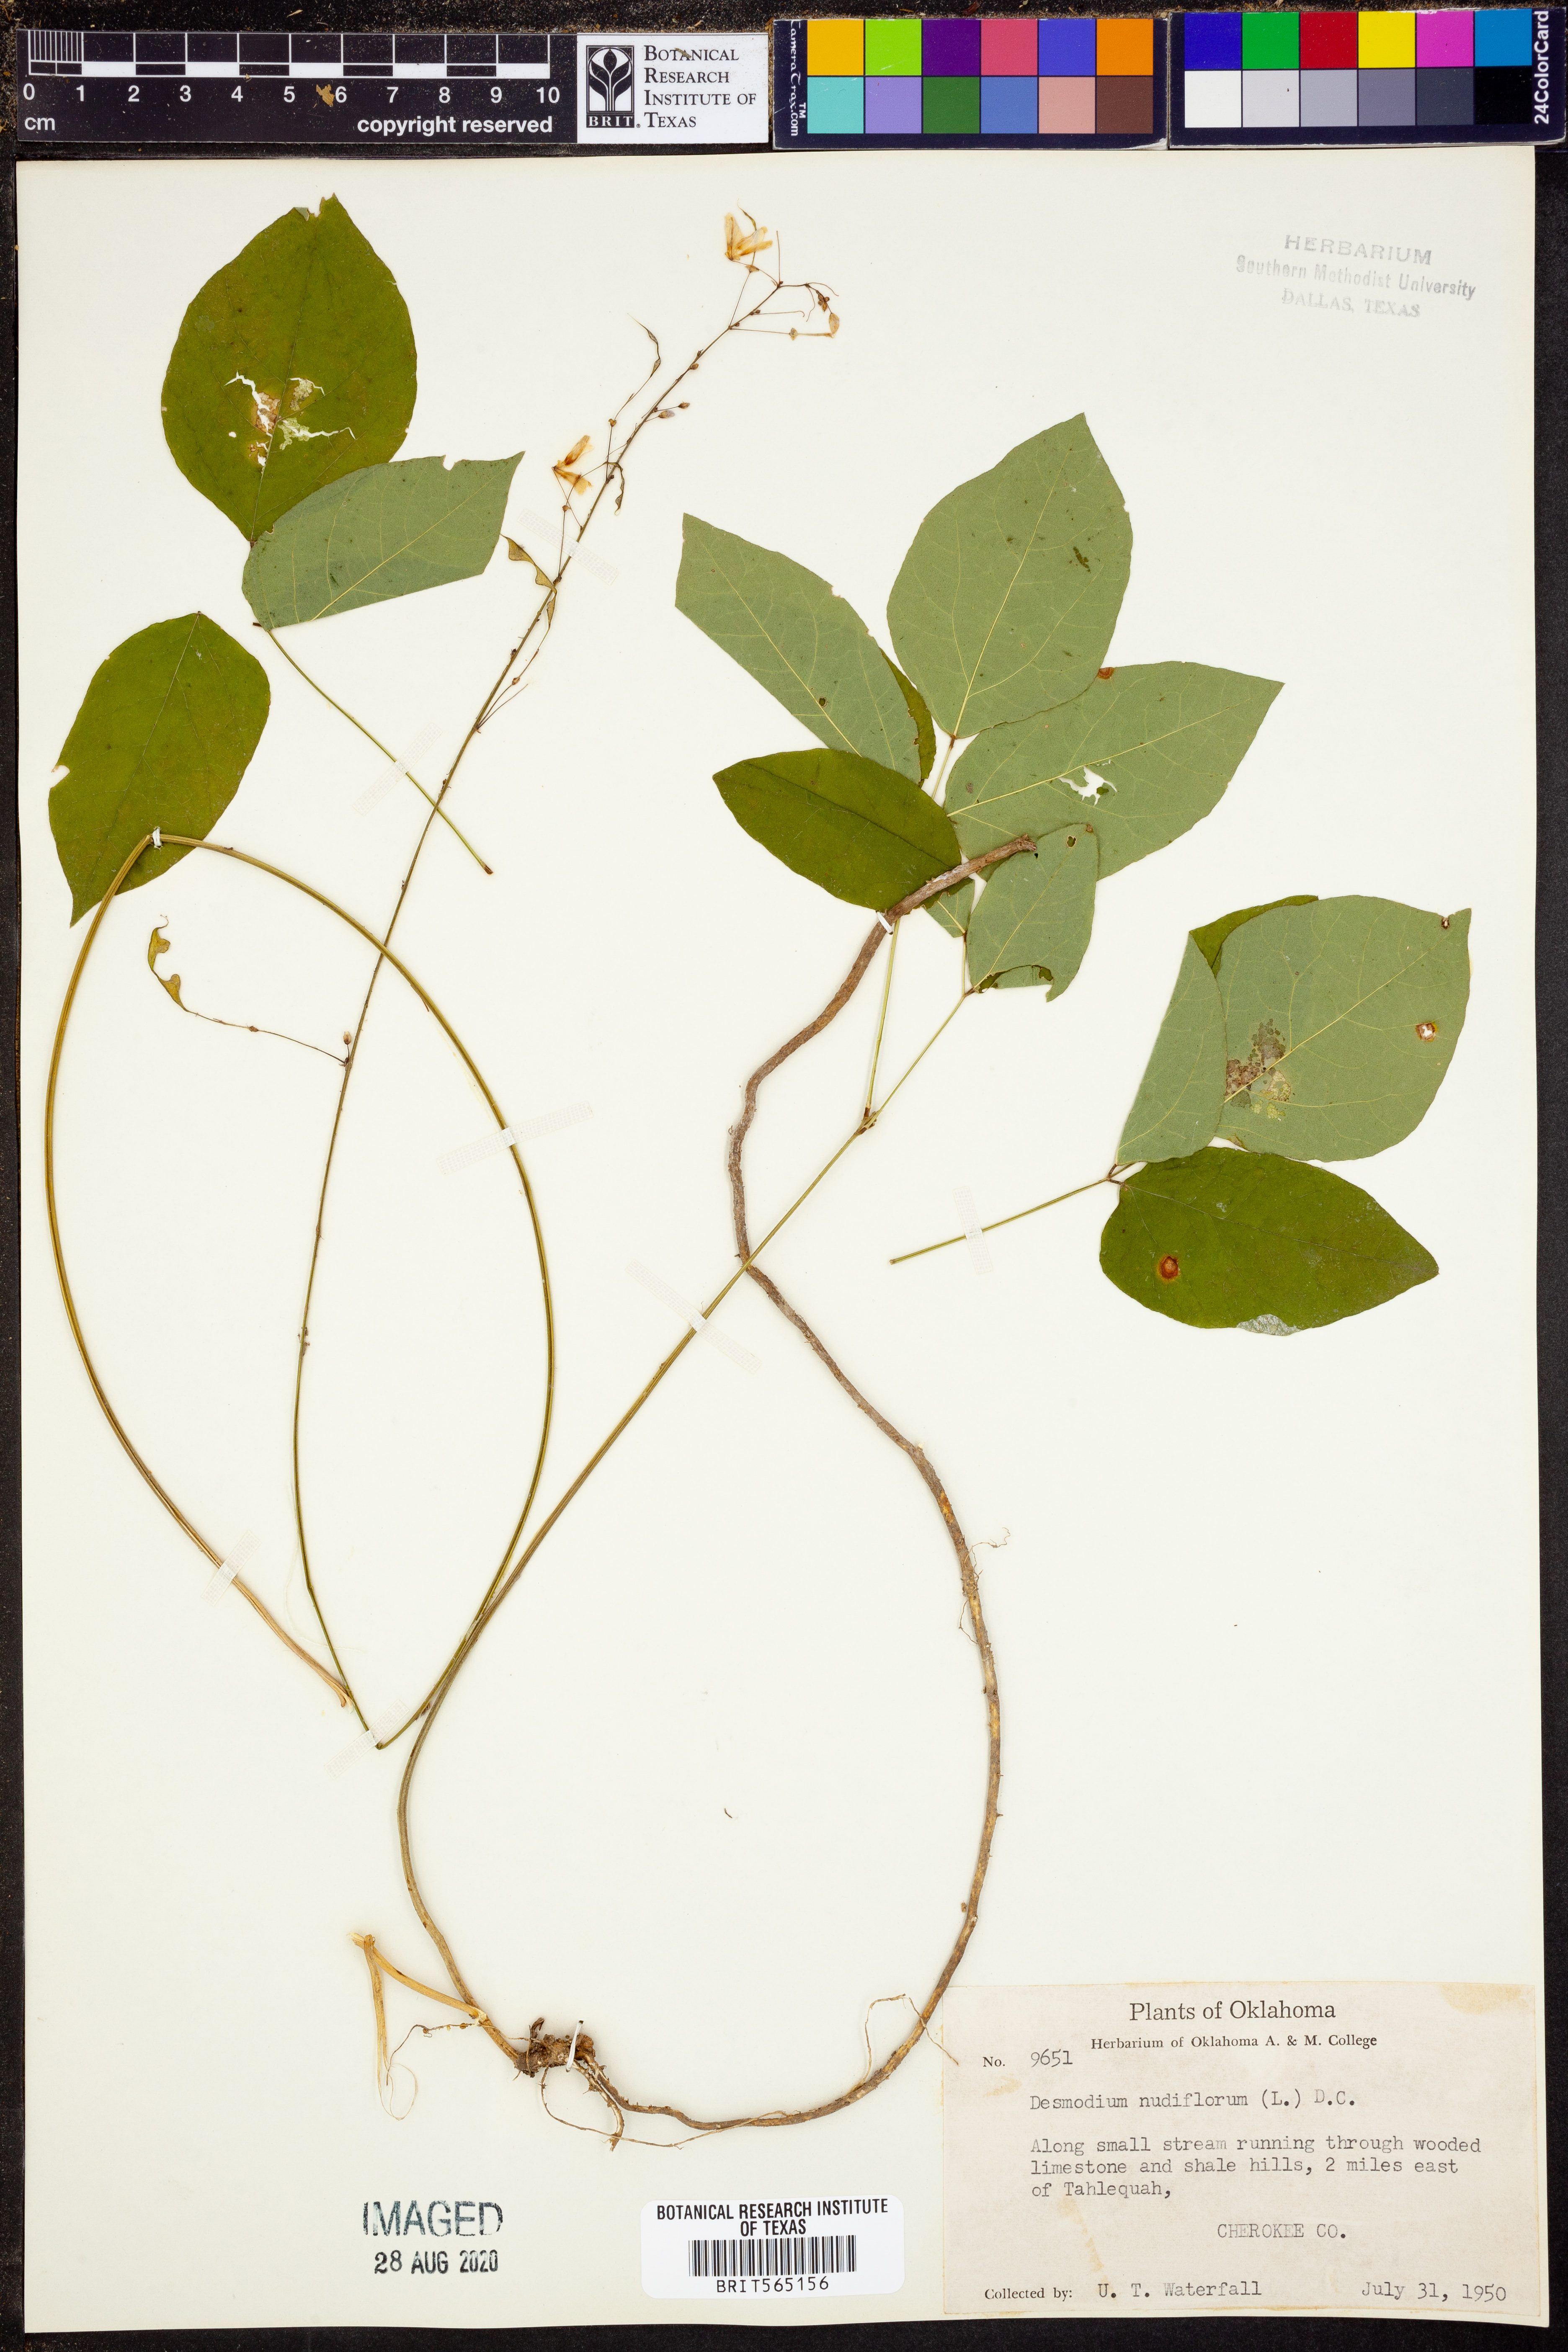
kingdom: Plantae
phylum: Tracheophyta
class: Magnoliopsida
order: Fabales
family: Fabaceae
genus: Hylodesmum
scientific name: Hylodesmum nudiflorum
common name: Bare-stemmed tick-trefoil
